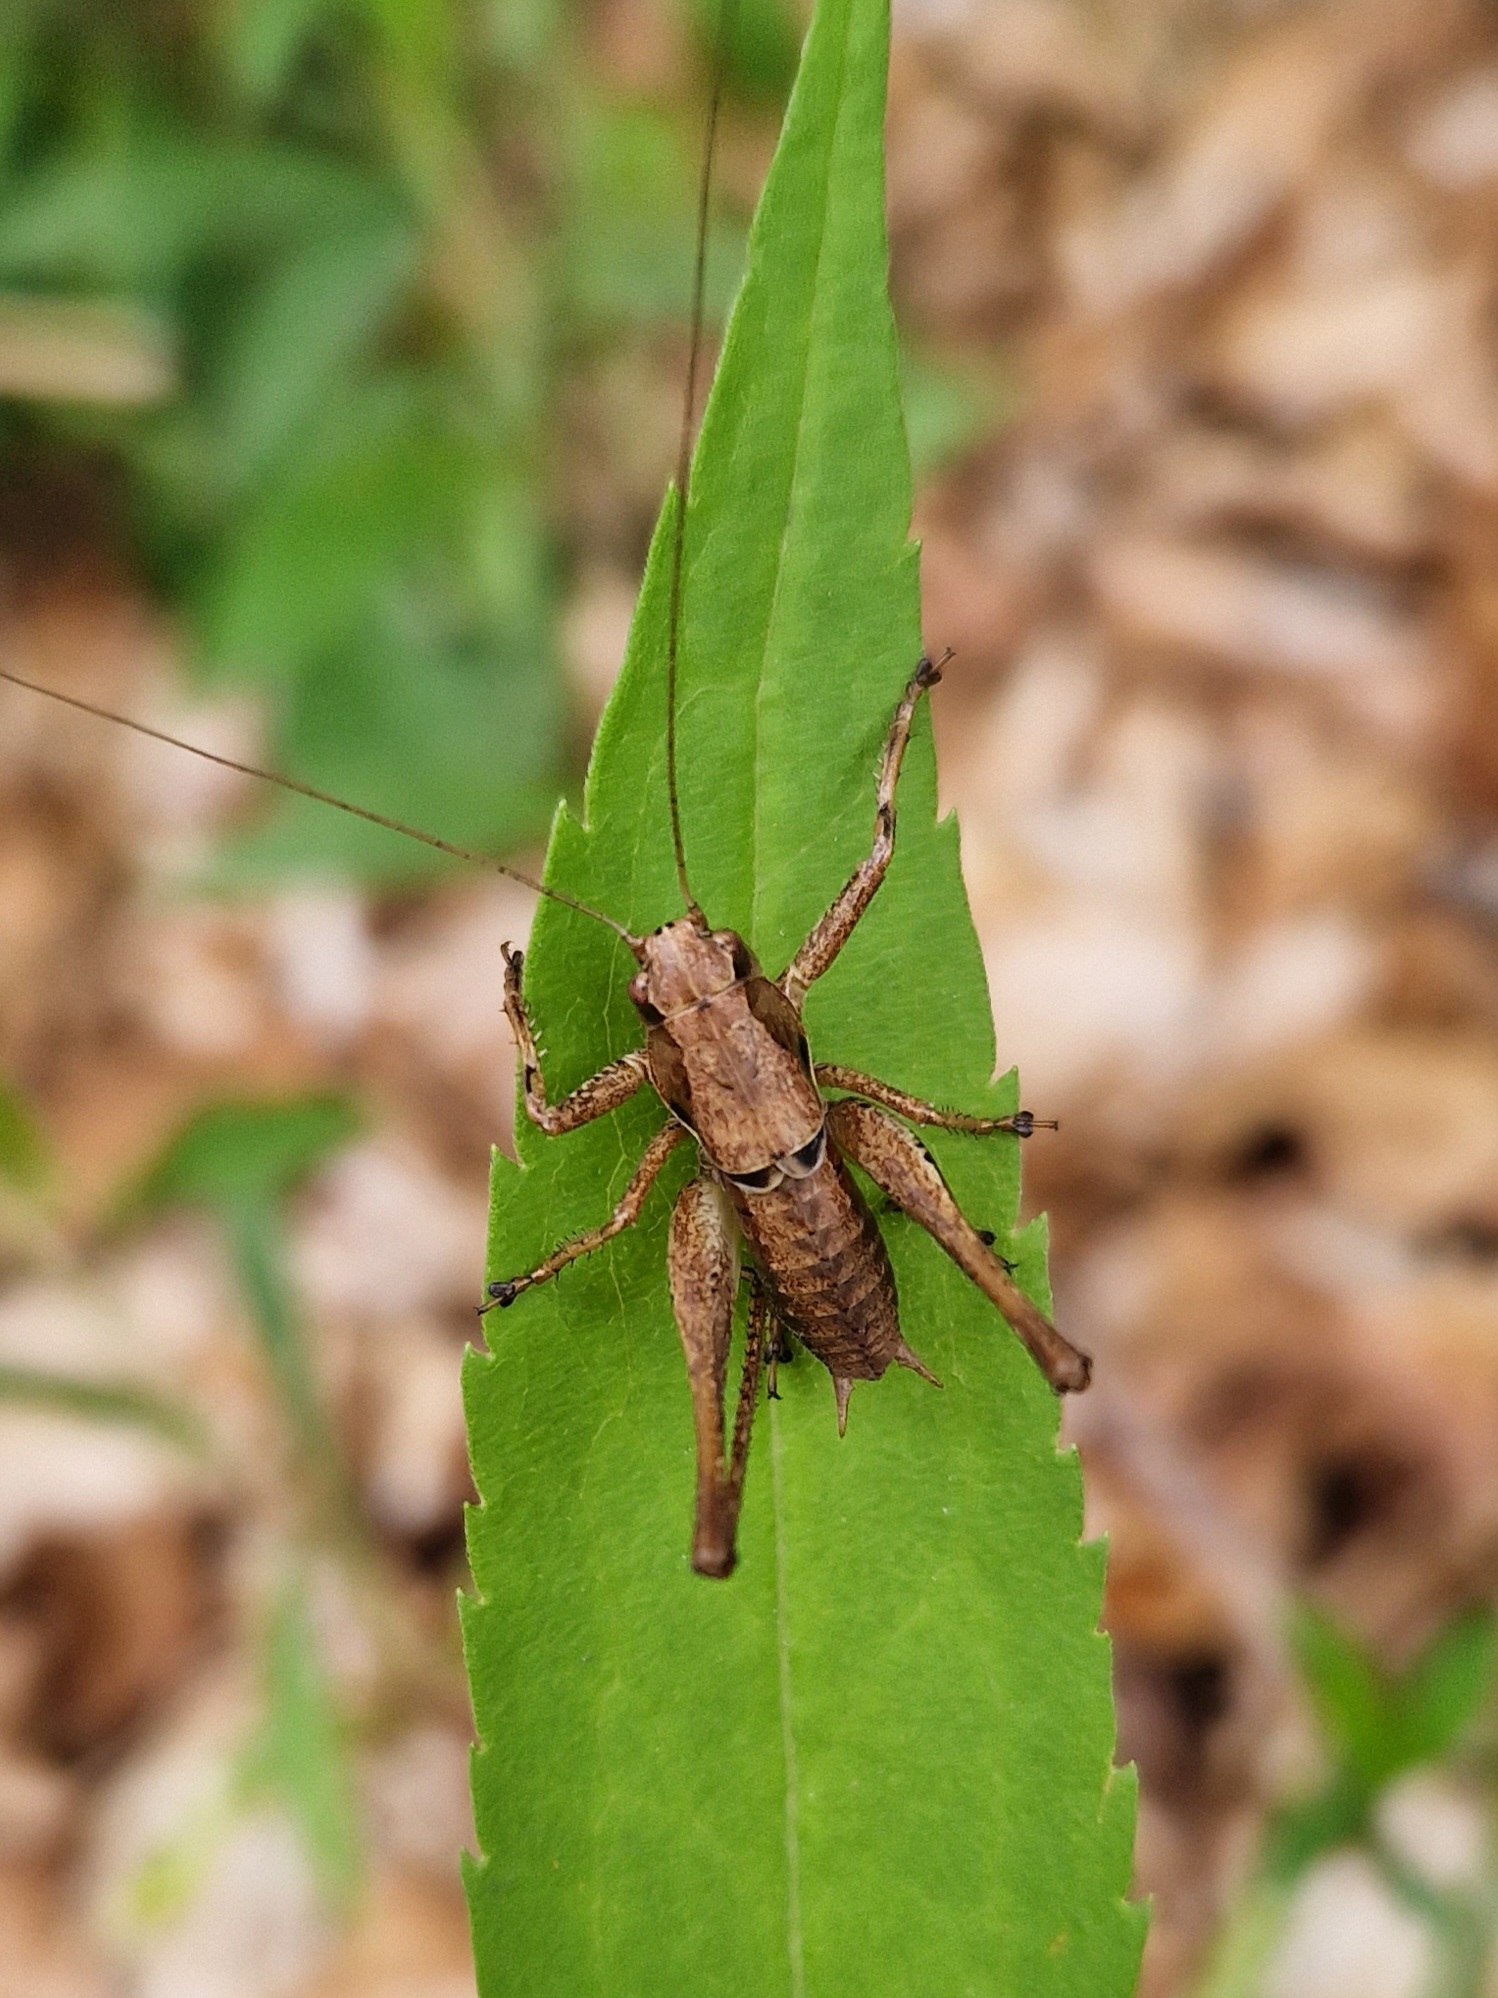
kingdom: Animalia
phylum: Arthropoda
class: Insecta
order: Orthoptera
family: Tettigoniidae
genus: Pholidoptera
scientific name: Pholidoptera griseoaptera
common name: Buskgræshoppe
